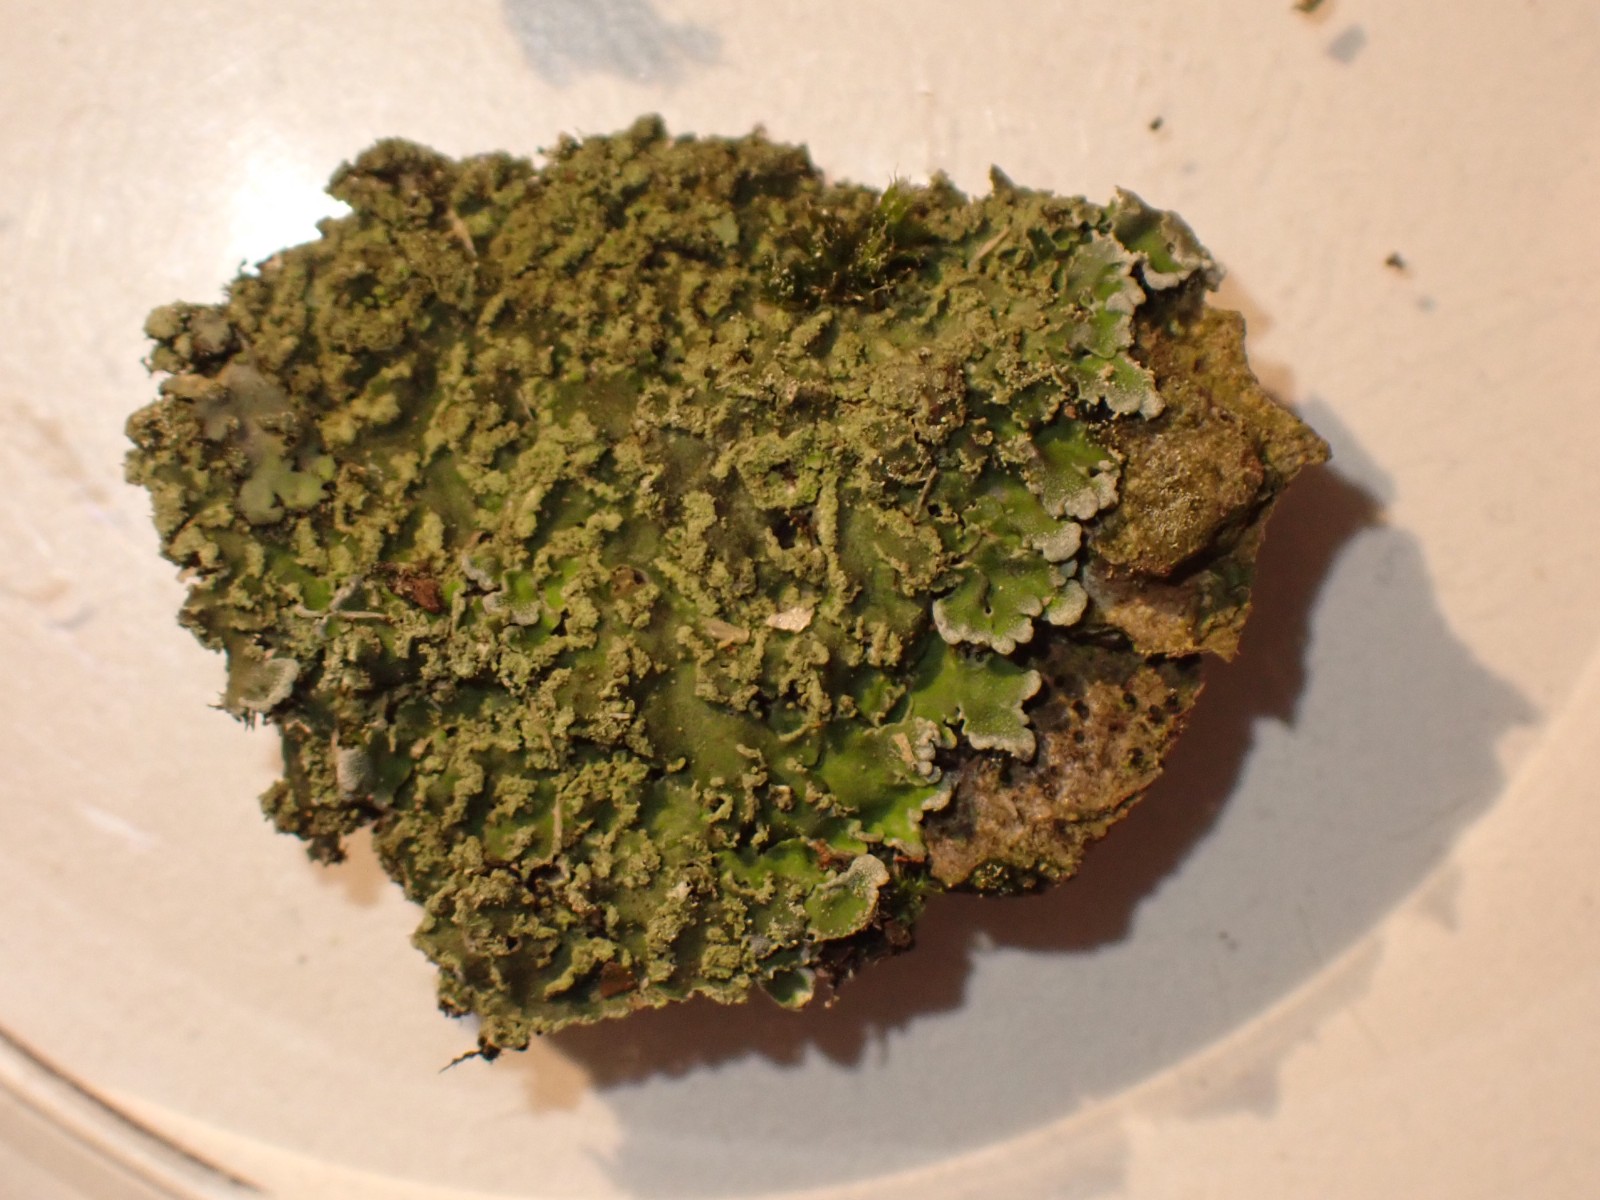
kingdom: Fungi
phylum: Ascomycota
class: Lecanoromycetes
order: Caliciales
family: Physciaceae
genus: Physconia
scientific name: Physconia
